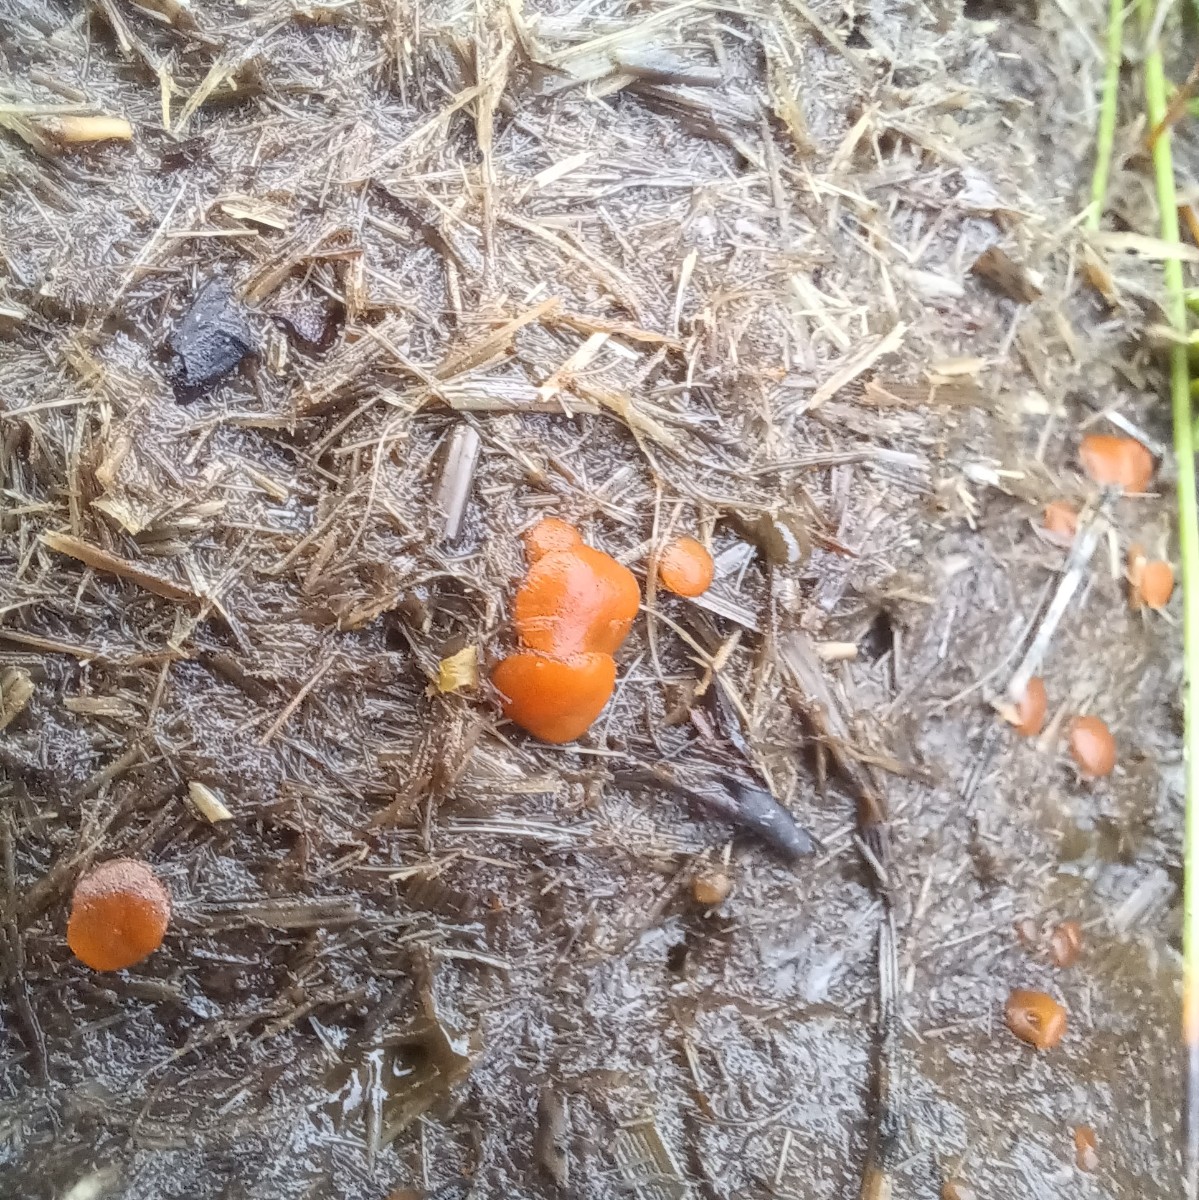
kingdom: Fungi
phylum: Ascomycota
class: Pezizomycetes
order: Pezizales
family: Pyronemataceae
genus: Cheilymenia
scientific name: Cheilymenia granulata
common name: møgbæger
